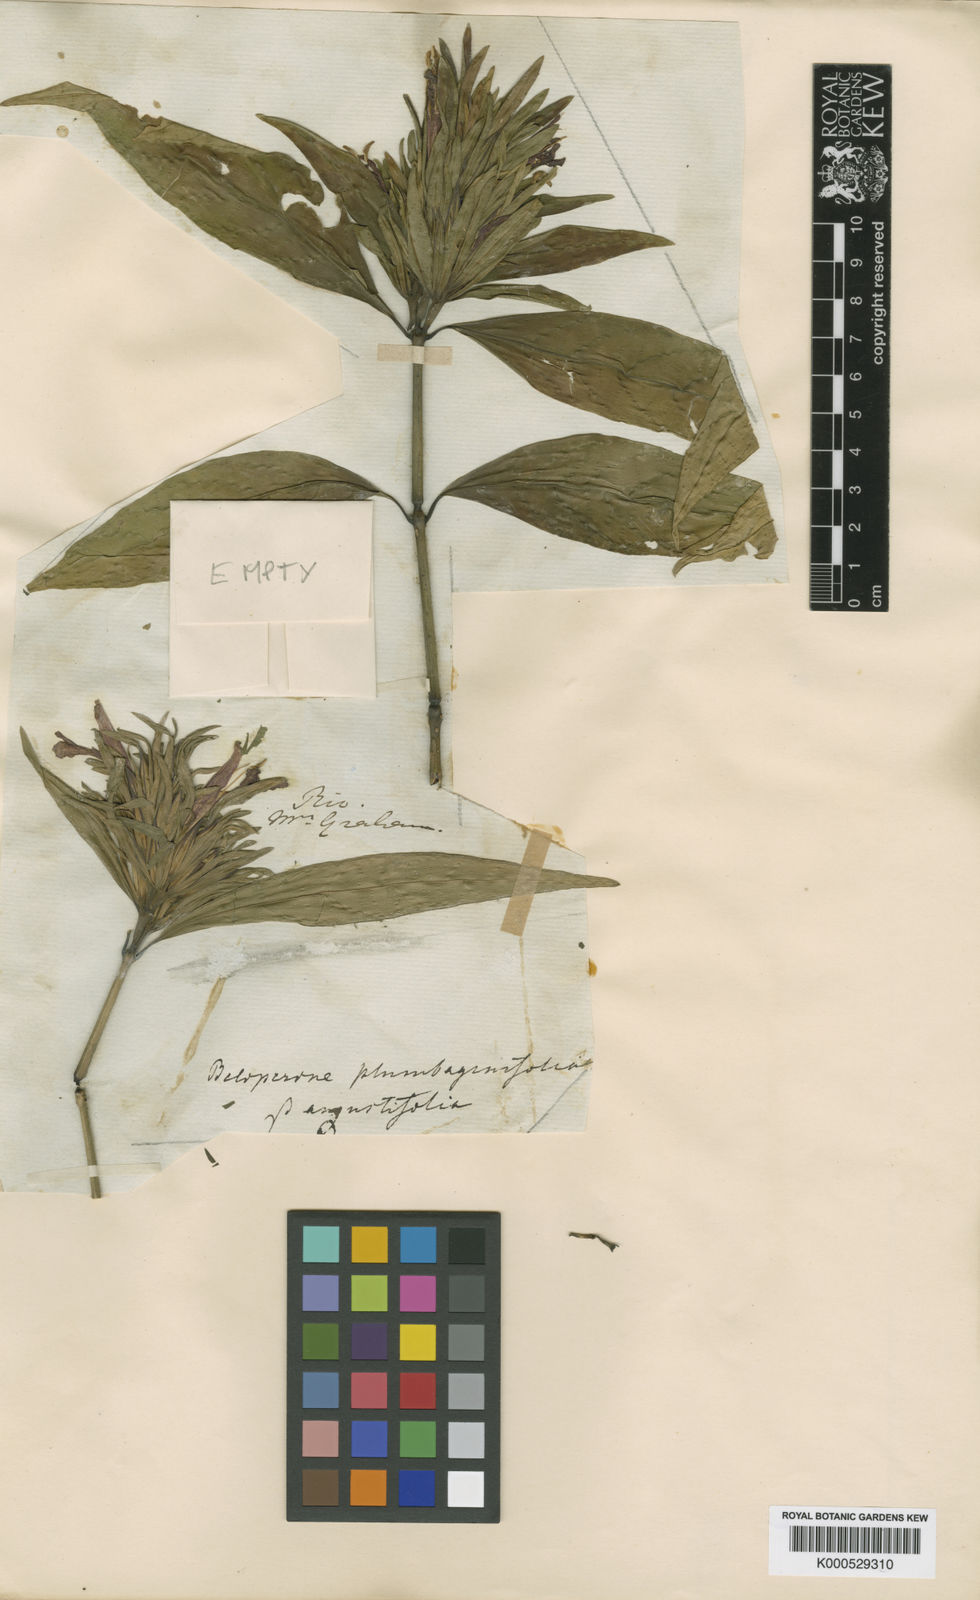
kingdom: Plantae
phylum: Tracheophyta
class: Magnoliopsida
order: Lamiales
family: Acanthaceae
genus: Justicia
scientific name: Justicia plumbaginifolia
